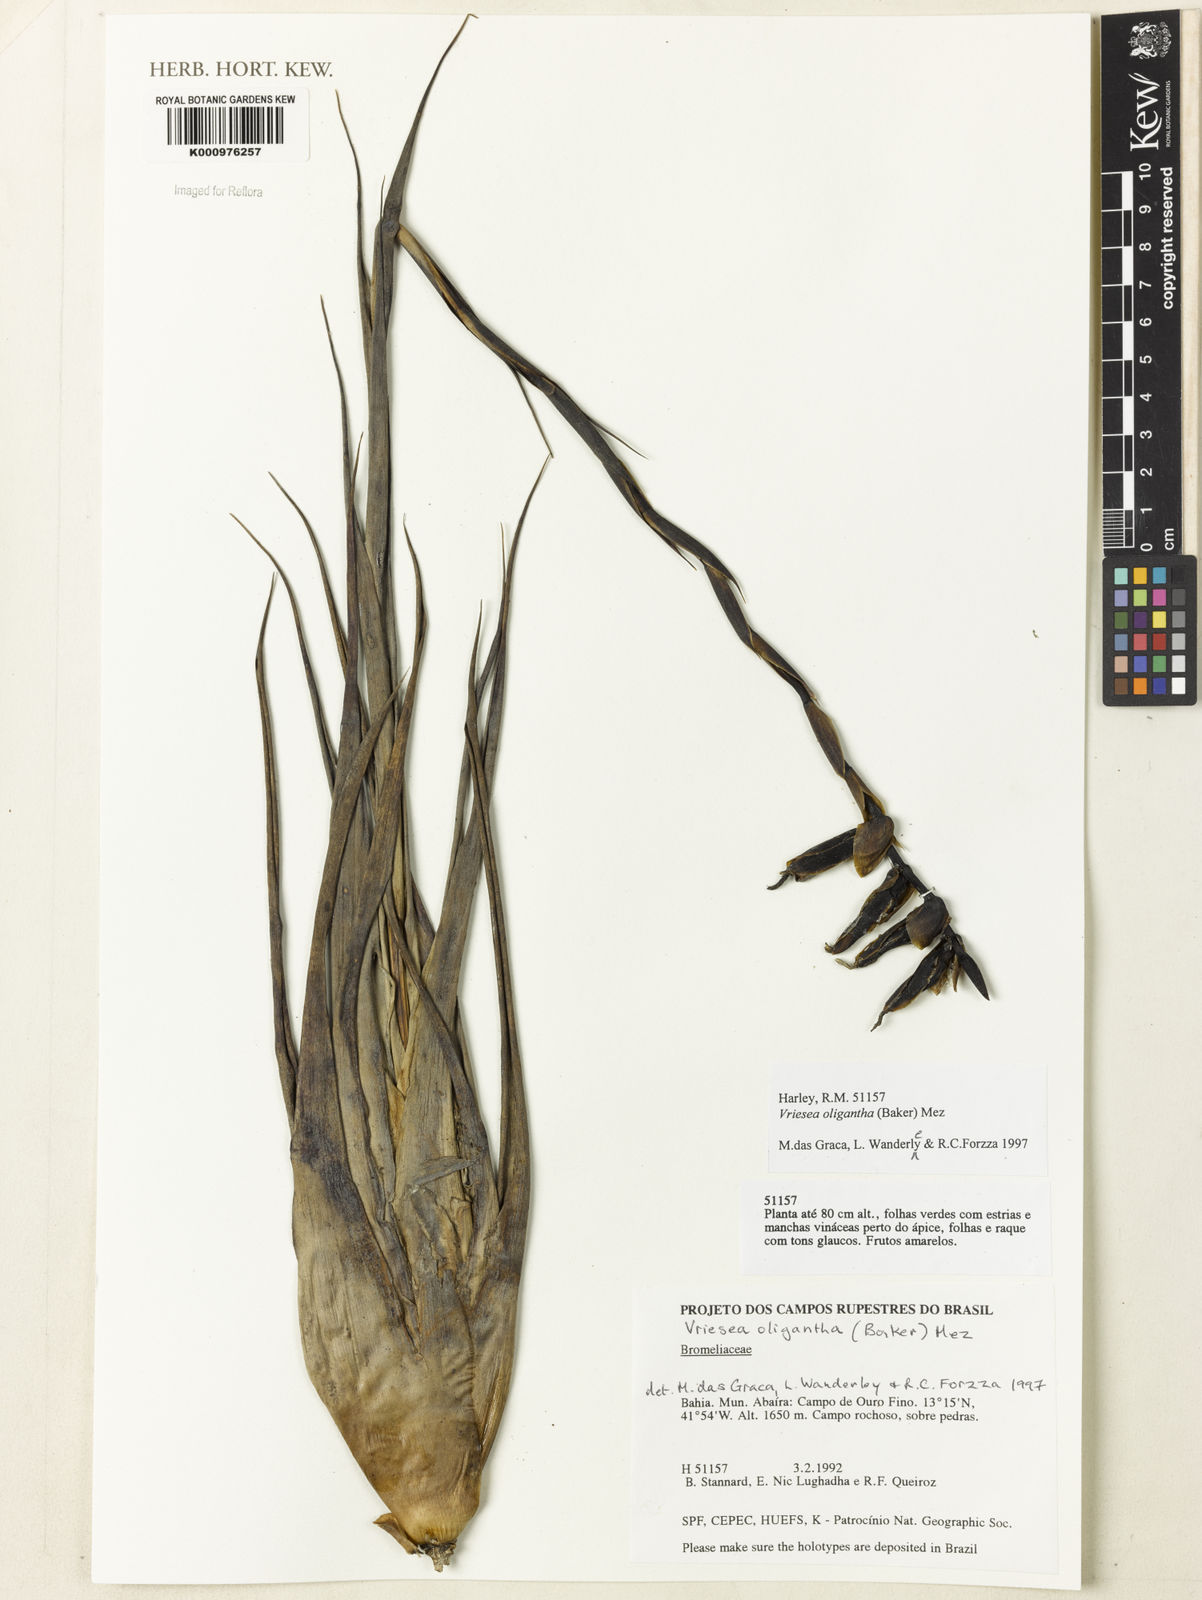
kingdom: Plantae
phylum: Tracheophyta
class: Liliopsida
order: Poales
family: Bromeliaceae
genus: Vriesea
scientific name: Vriesea oligantha
